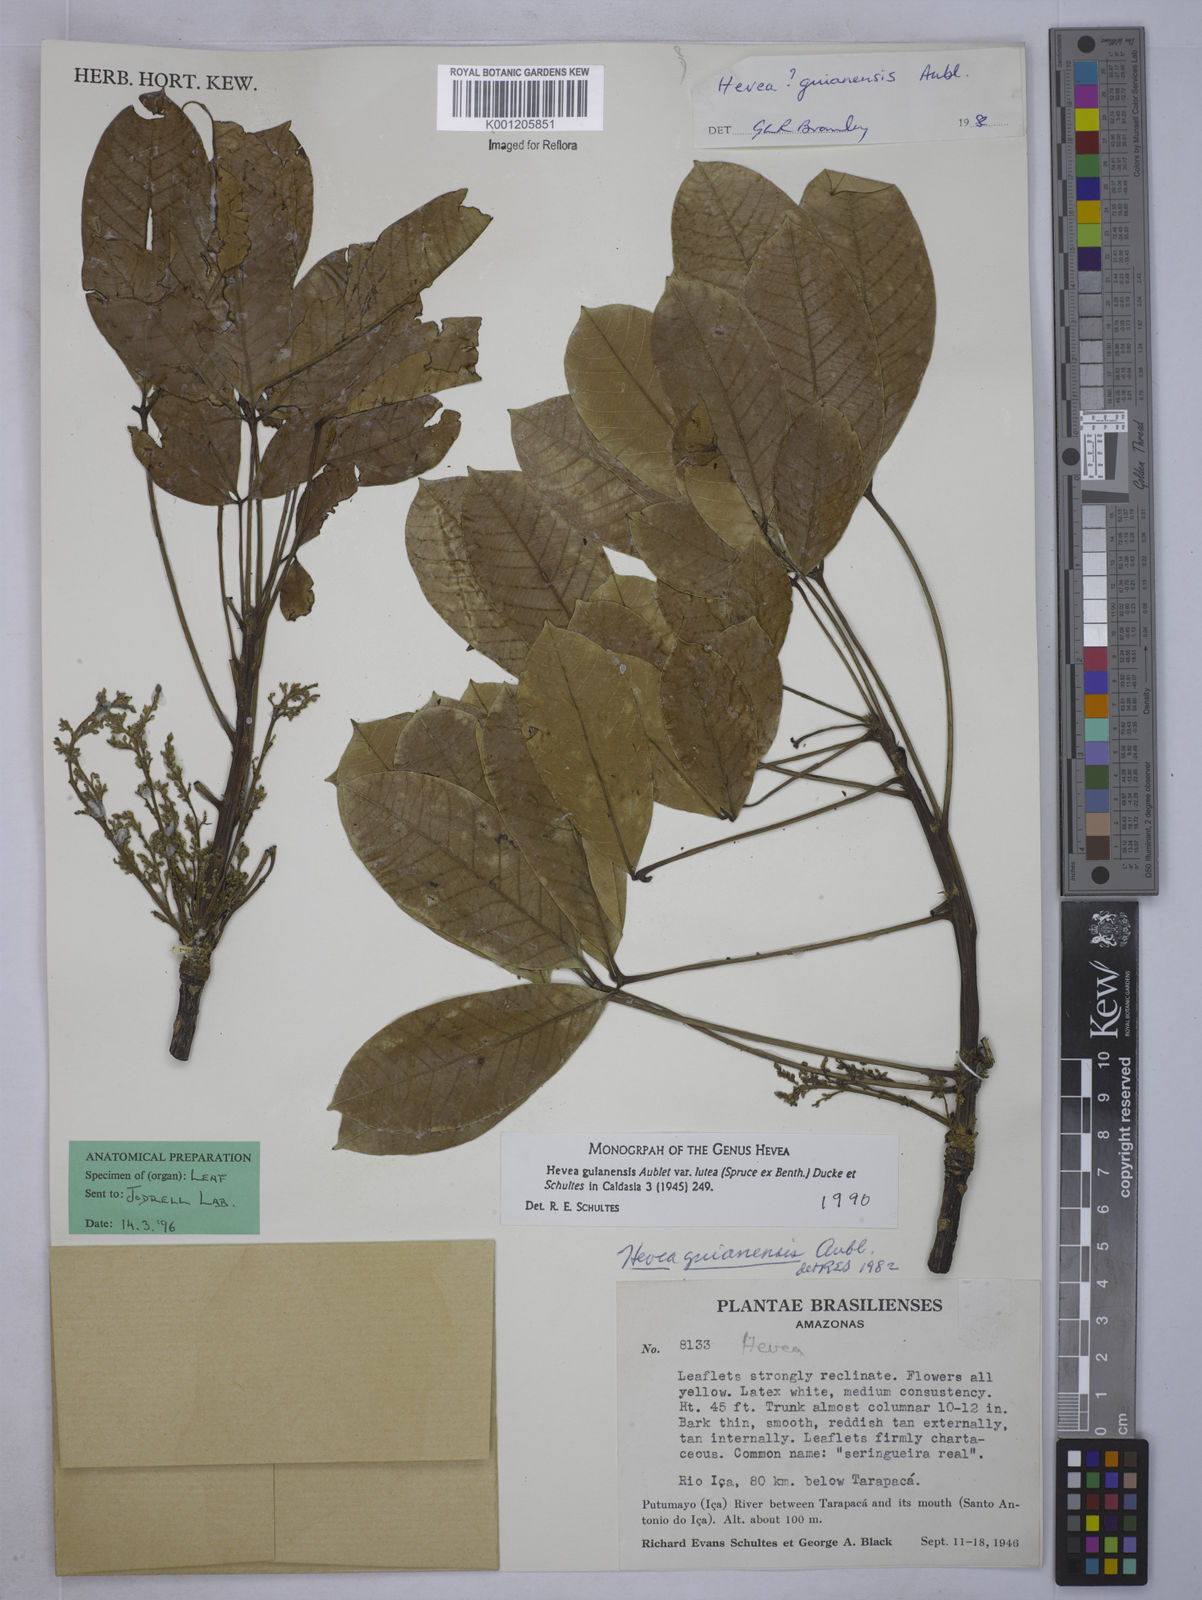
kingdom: Plantae
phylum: Tracheophyta
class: Magnoliopsida
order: Malpighiales
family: Euphorbiaceae
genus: Hevea
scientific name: Hevea guianensis
